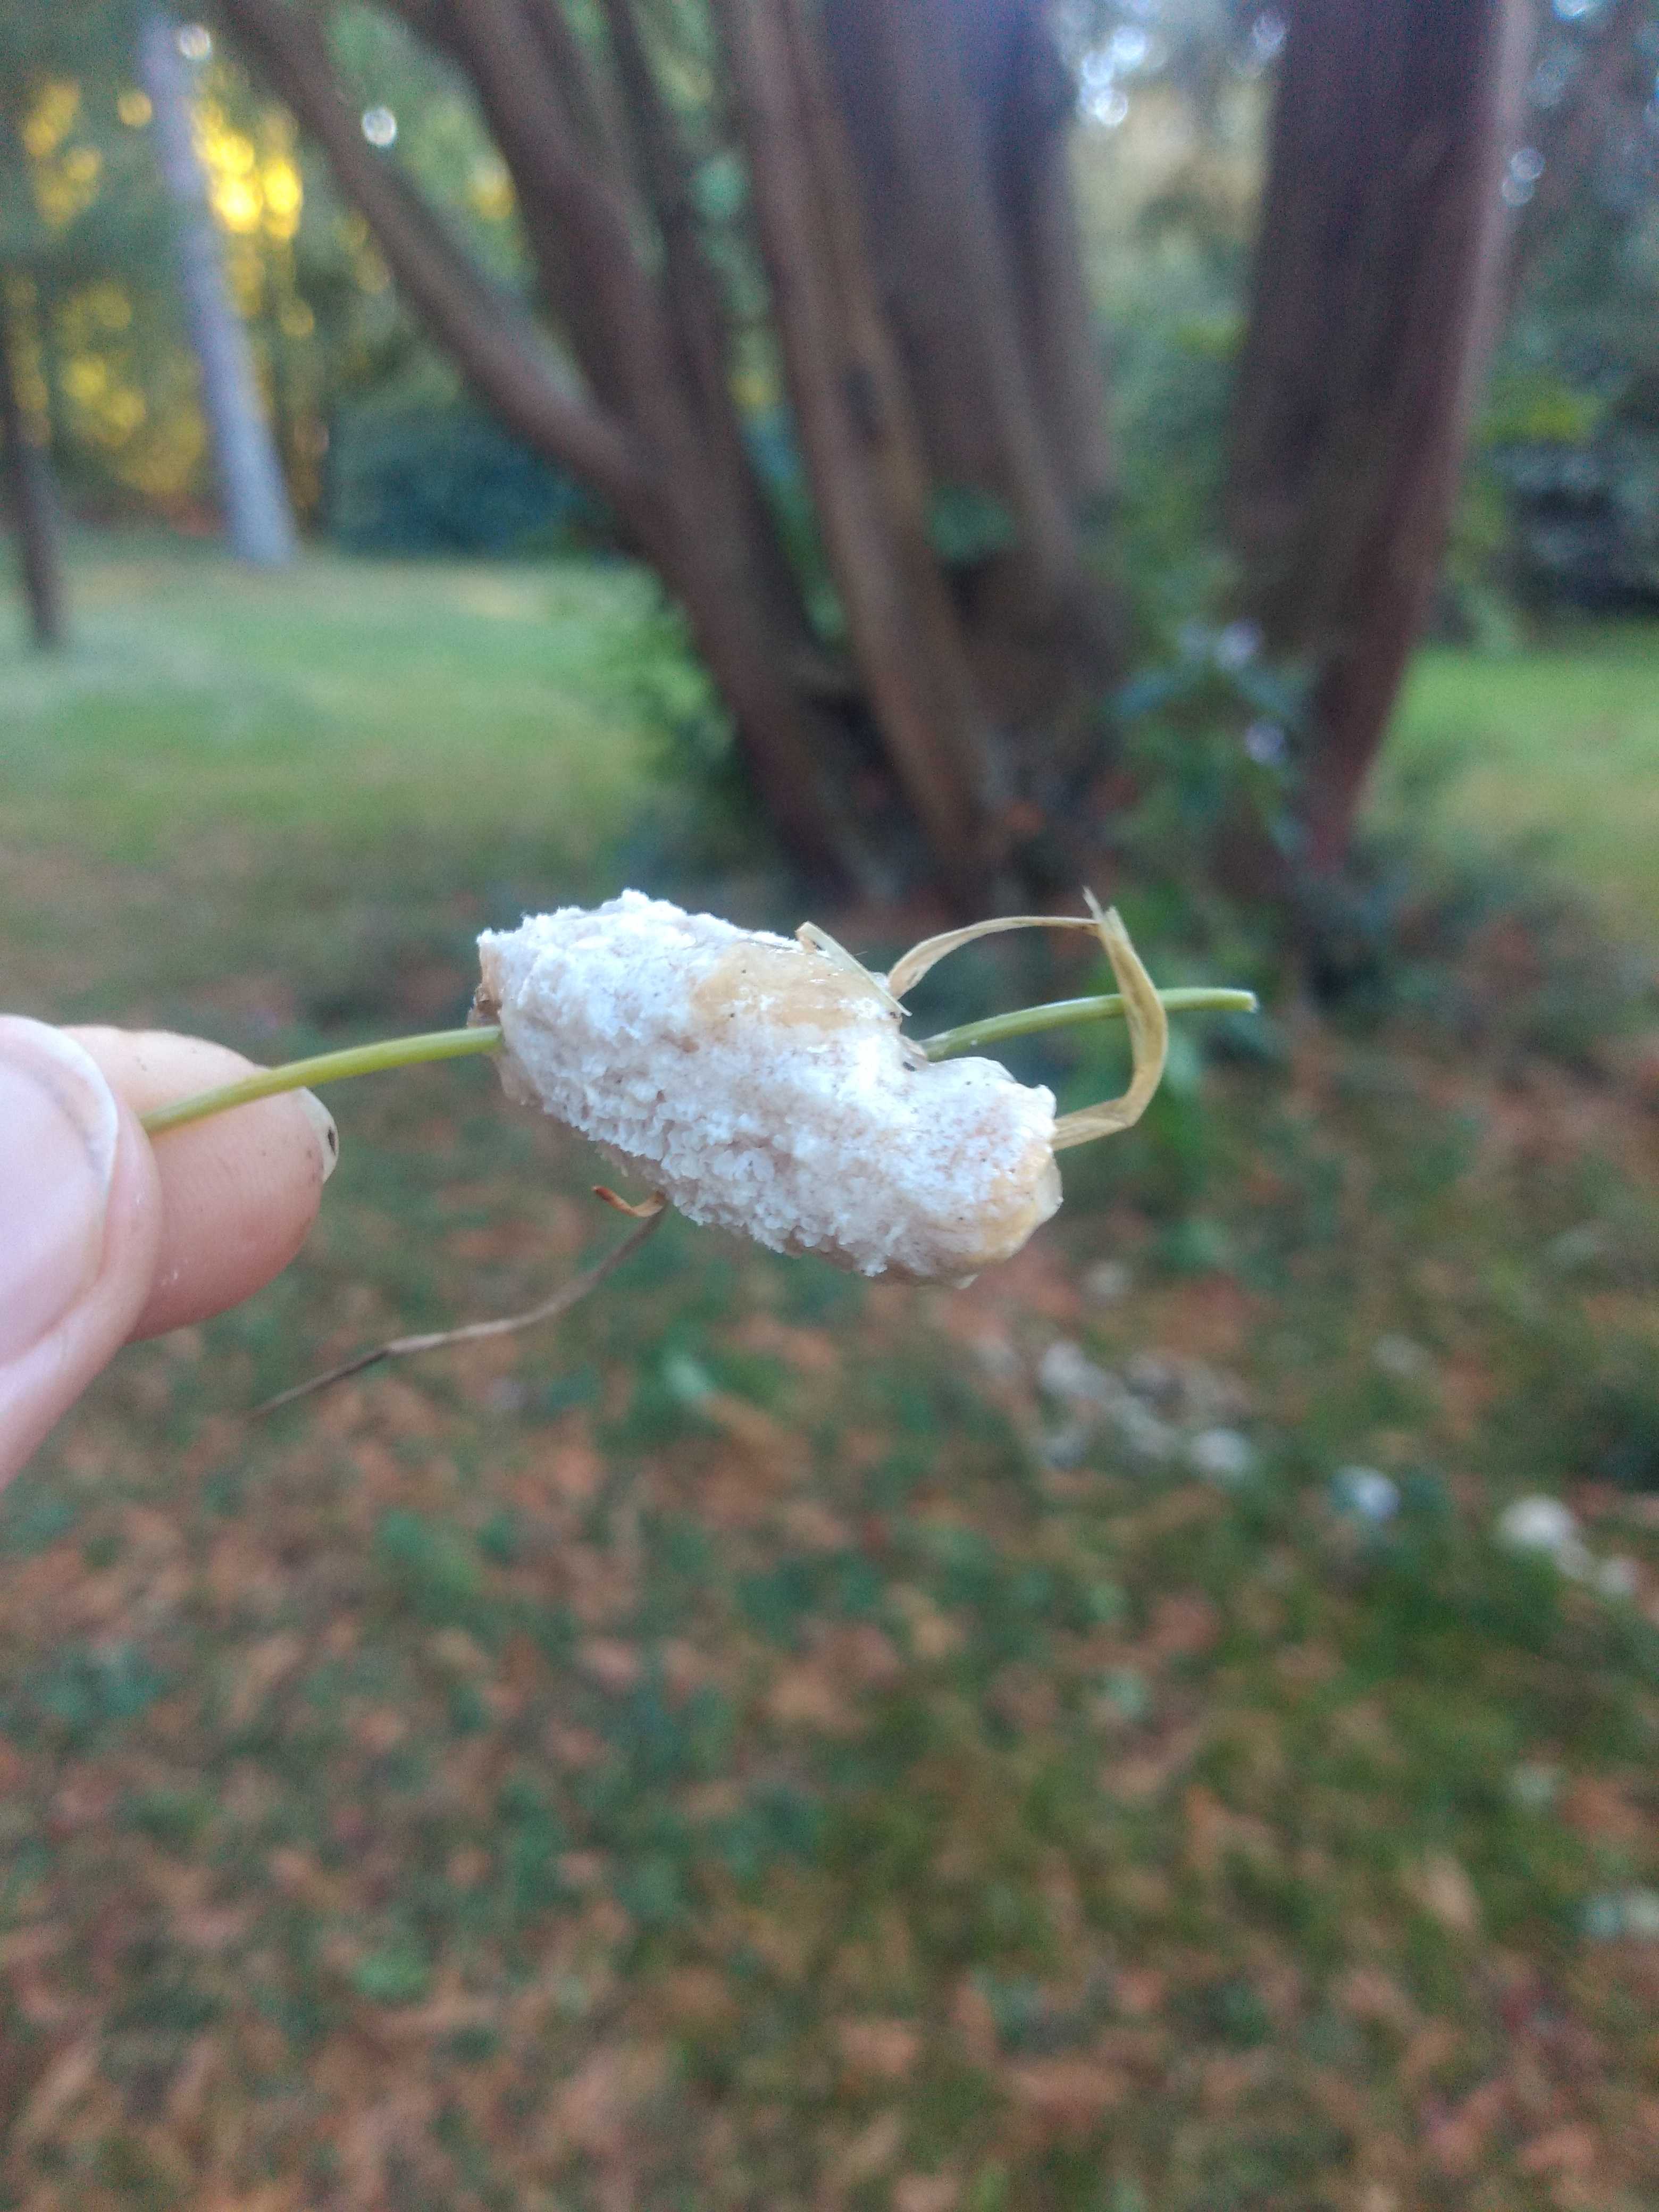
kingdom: Protozoa
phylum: Mycetozoa
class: Myxomycetes
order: Physarales
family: Physaraceae
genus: Didymium
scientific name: Didymium
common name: urteskum
